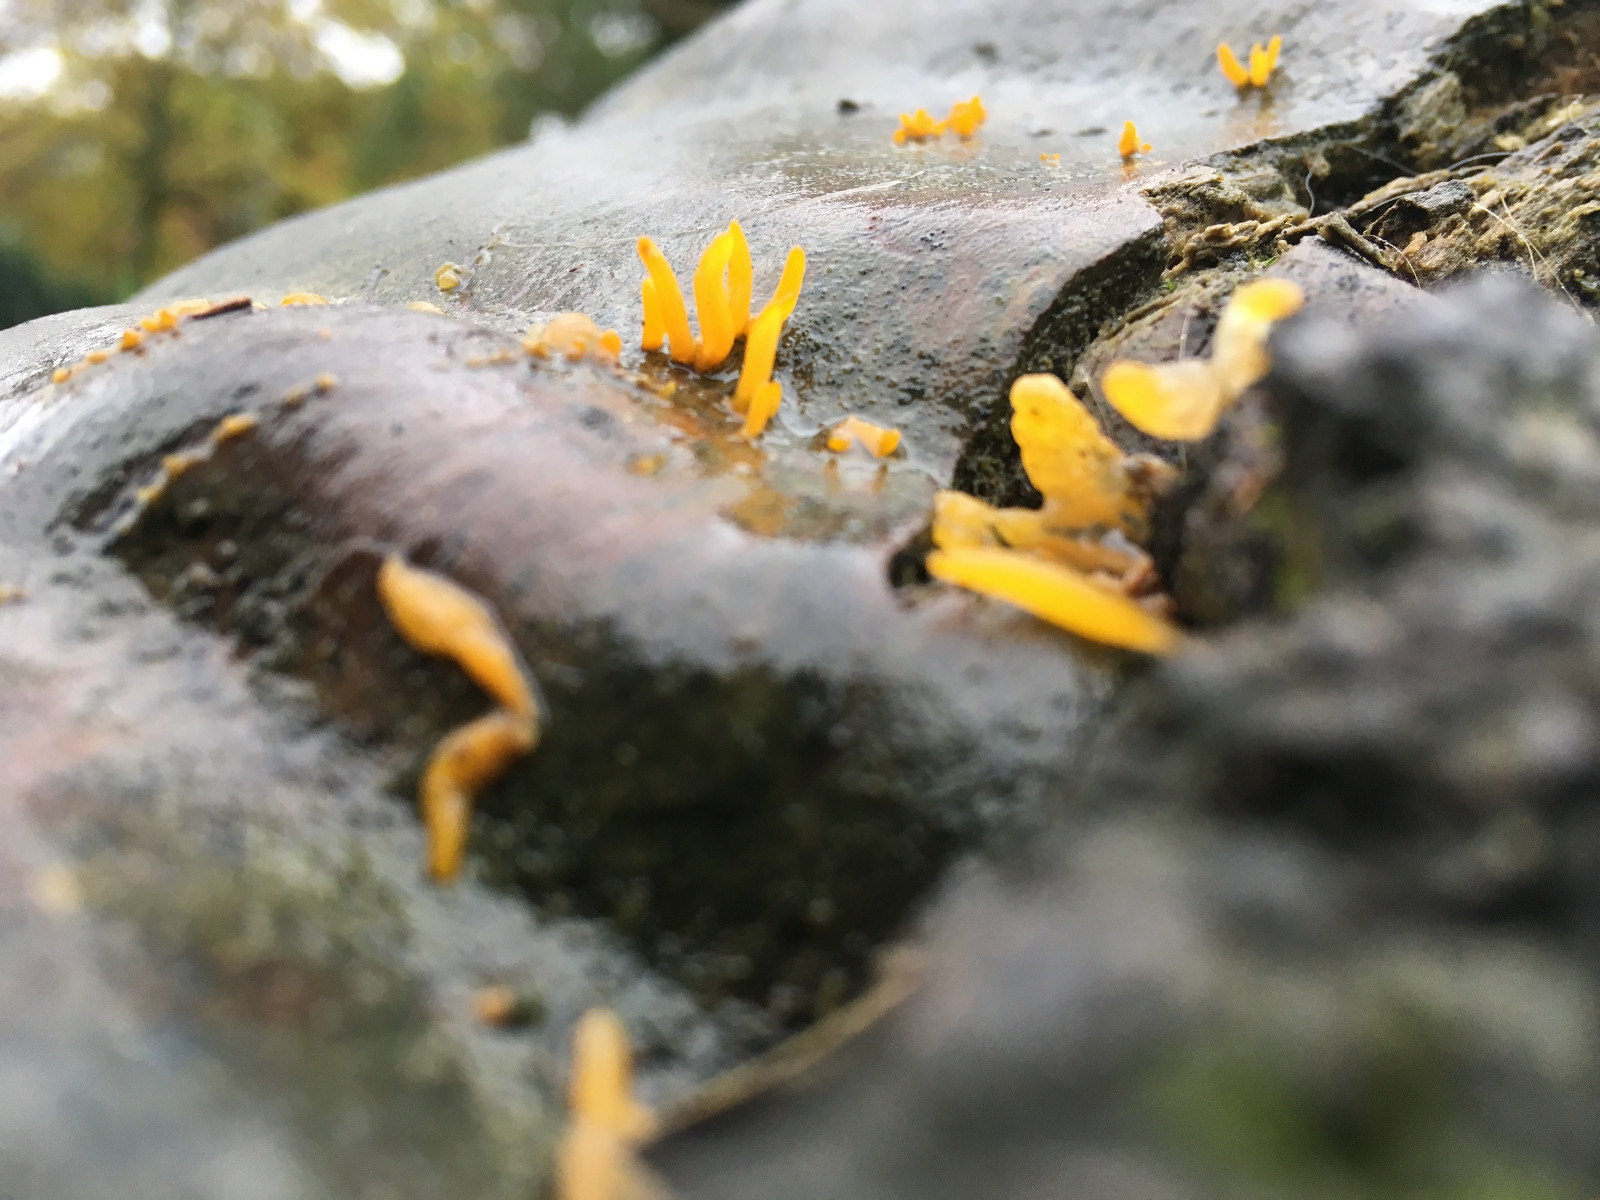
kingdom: Fungi
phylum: Basidiomycota
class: Dacrymycetes
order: Dacrymycetales
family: Dacrymycetaceae
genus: Calocera
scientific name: Calocera cornea
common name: liden guldgaffel
